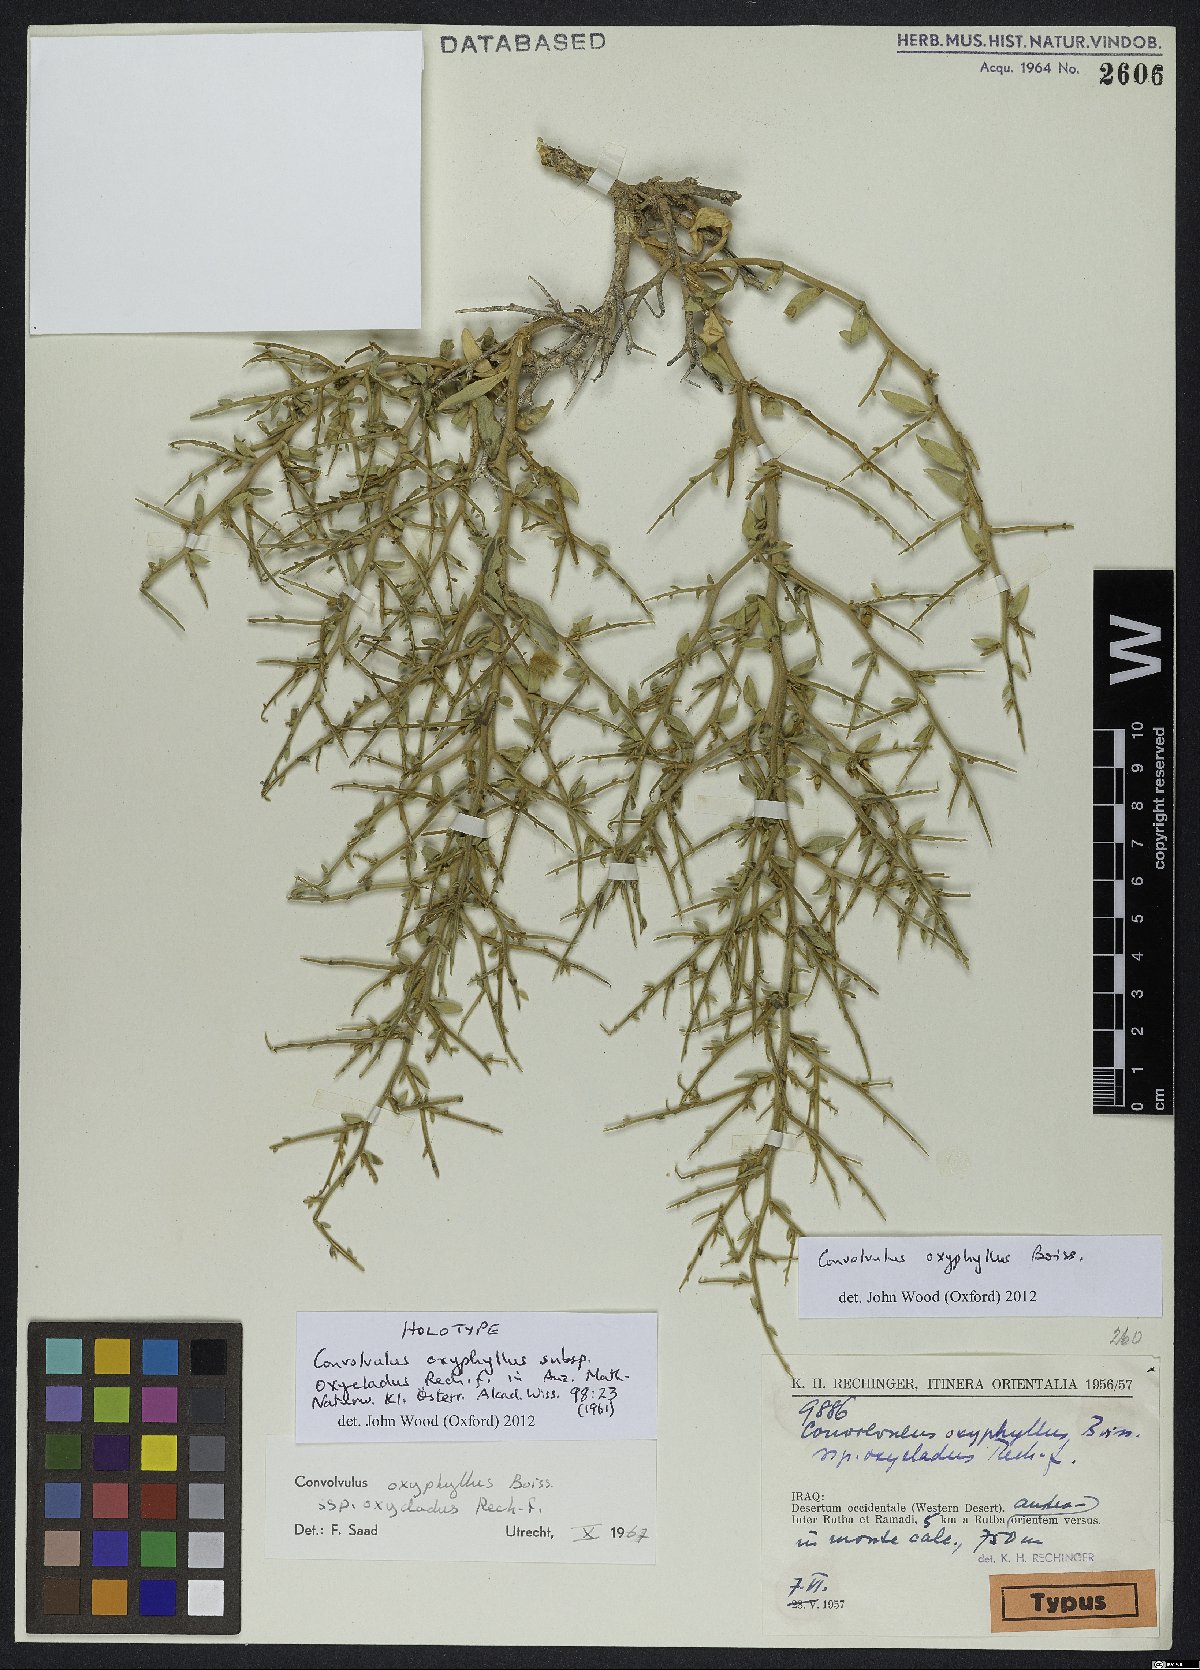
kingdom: Plantae
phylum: Tracheophyta
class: Magnoliopsida
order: Solanales
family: Convolvulaceae
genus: Convolvulus
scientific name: Convolvulus oxyphyllus
